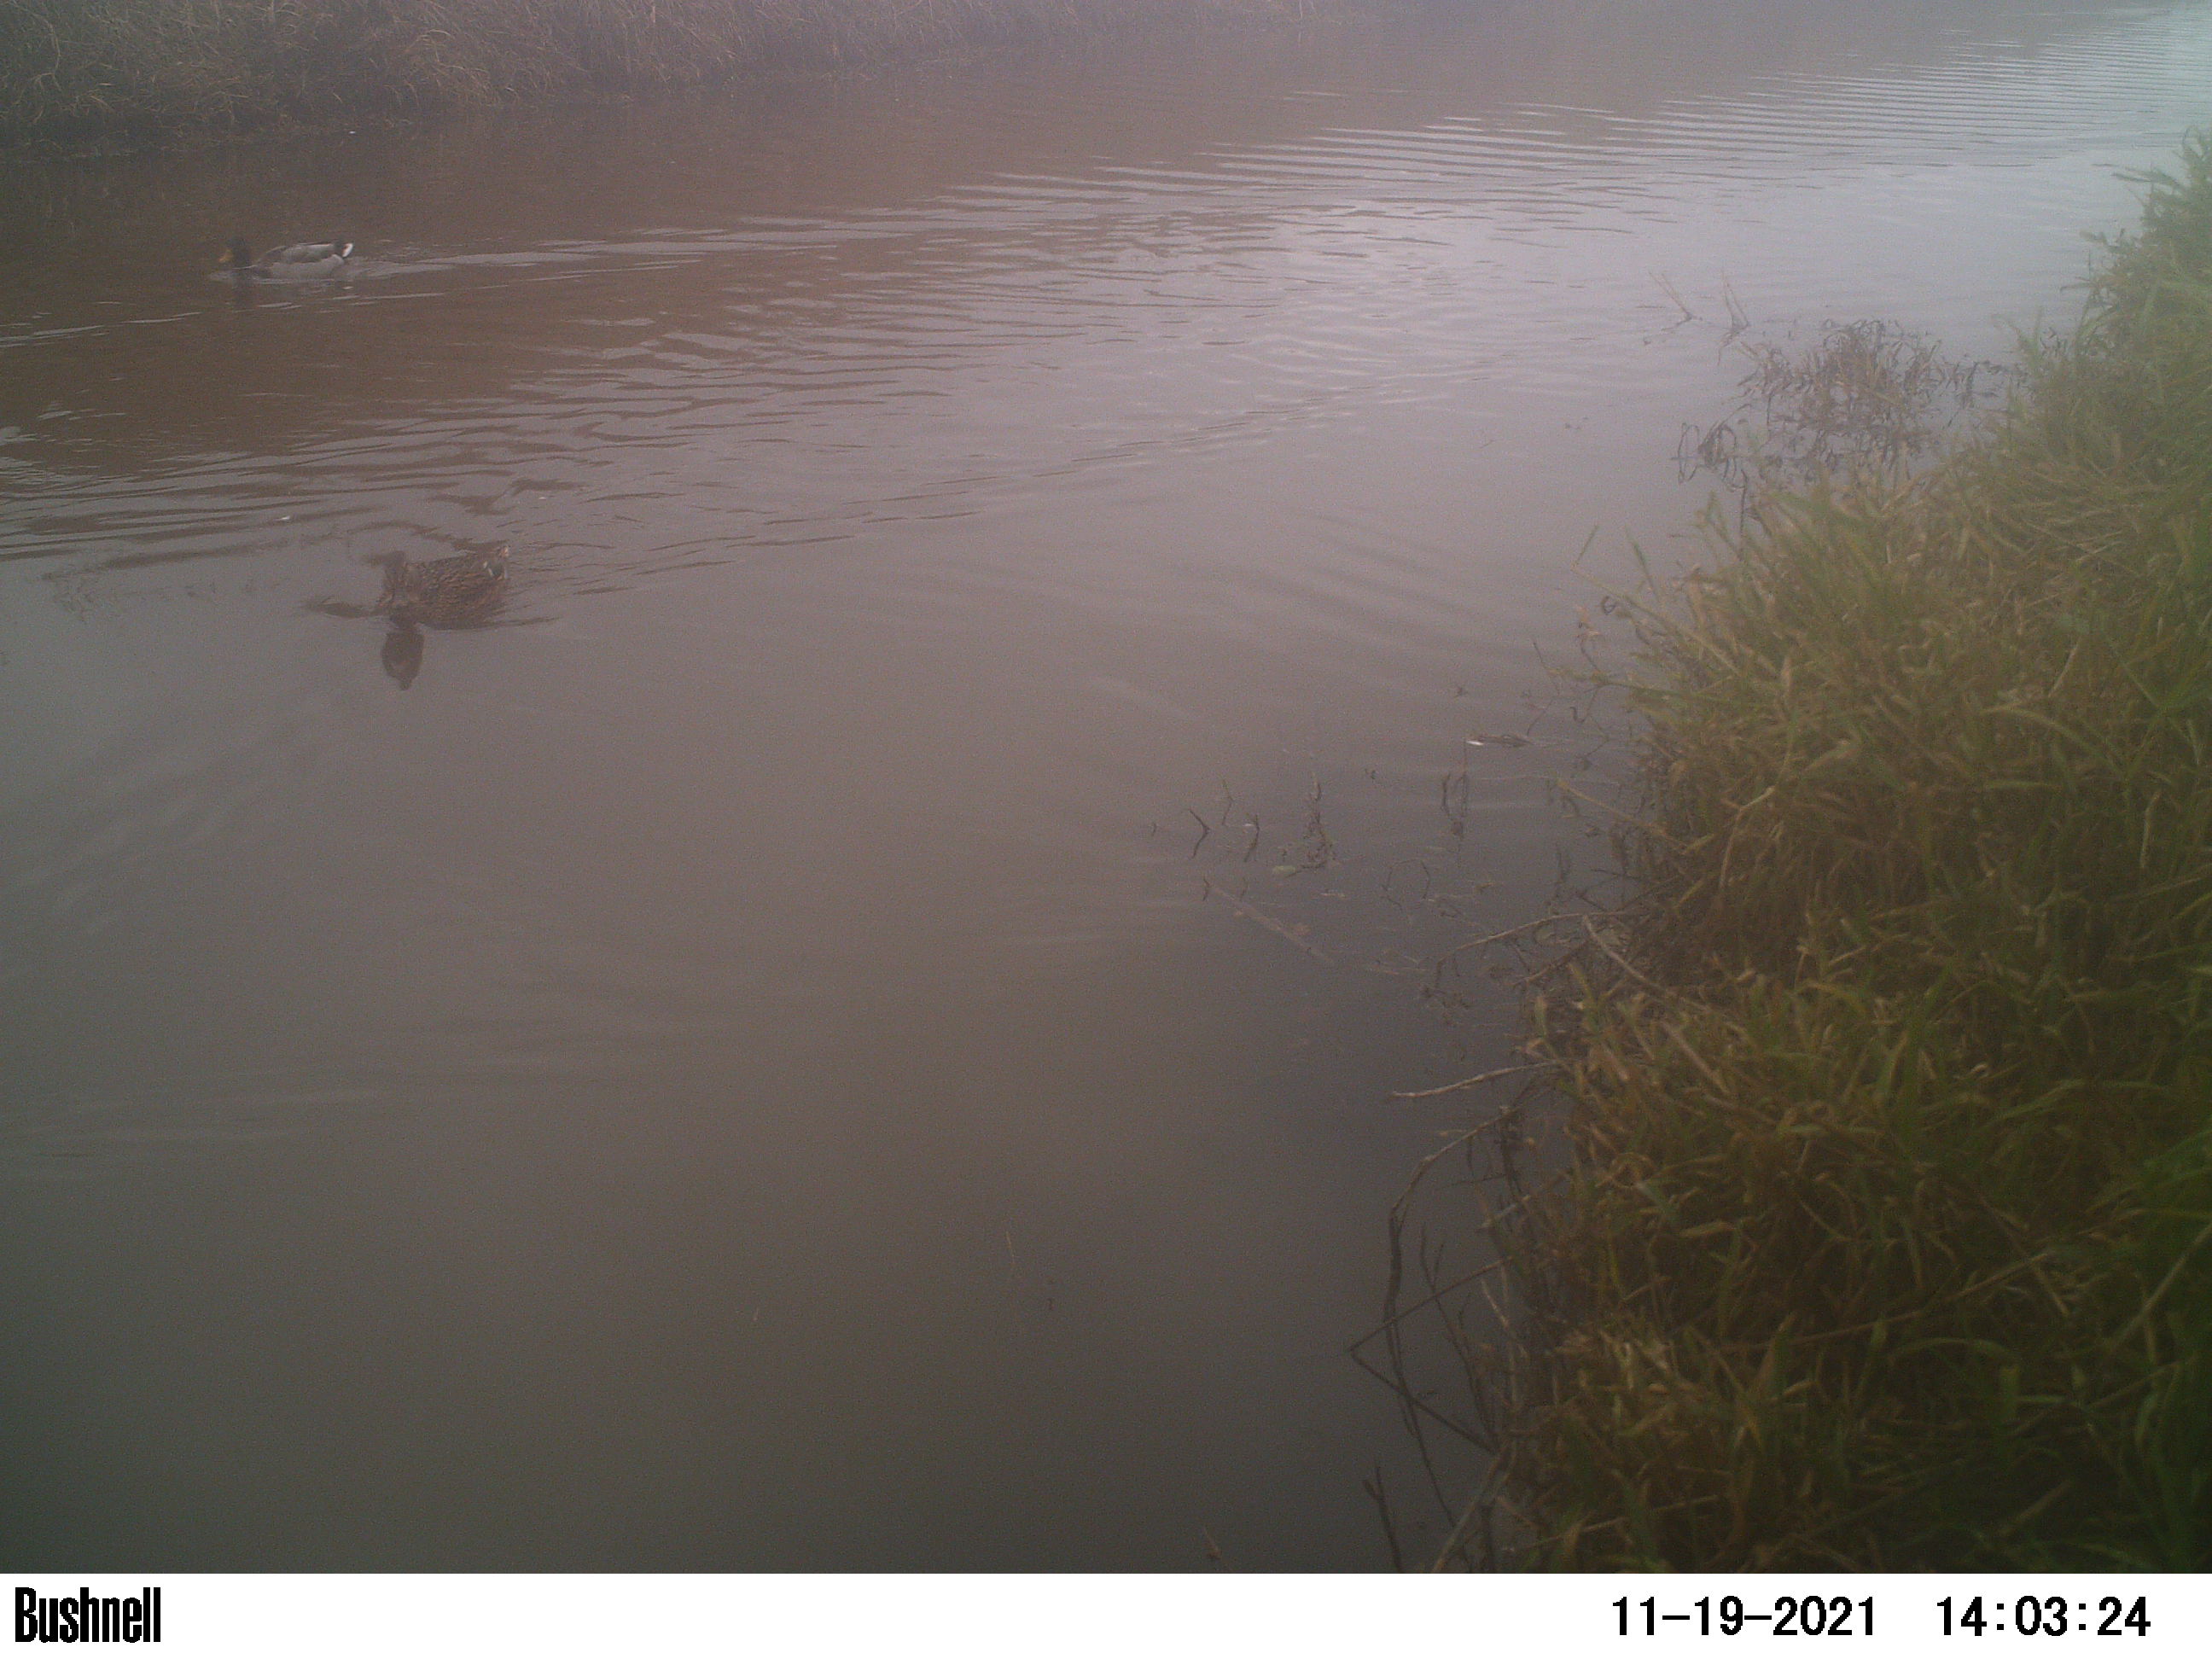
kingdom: Animalia
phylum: Chordata
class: Aves
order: Anseriformes
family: Anatidae
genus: Anas
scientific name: Anas
